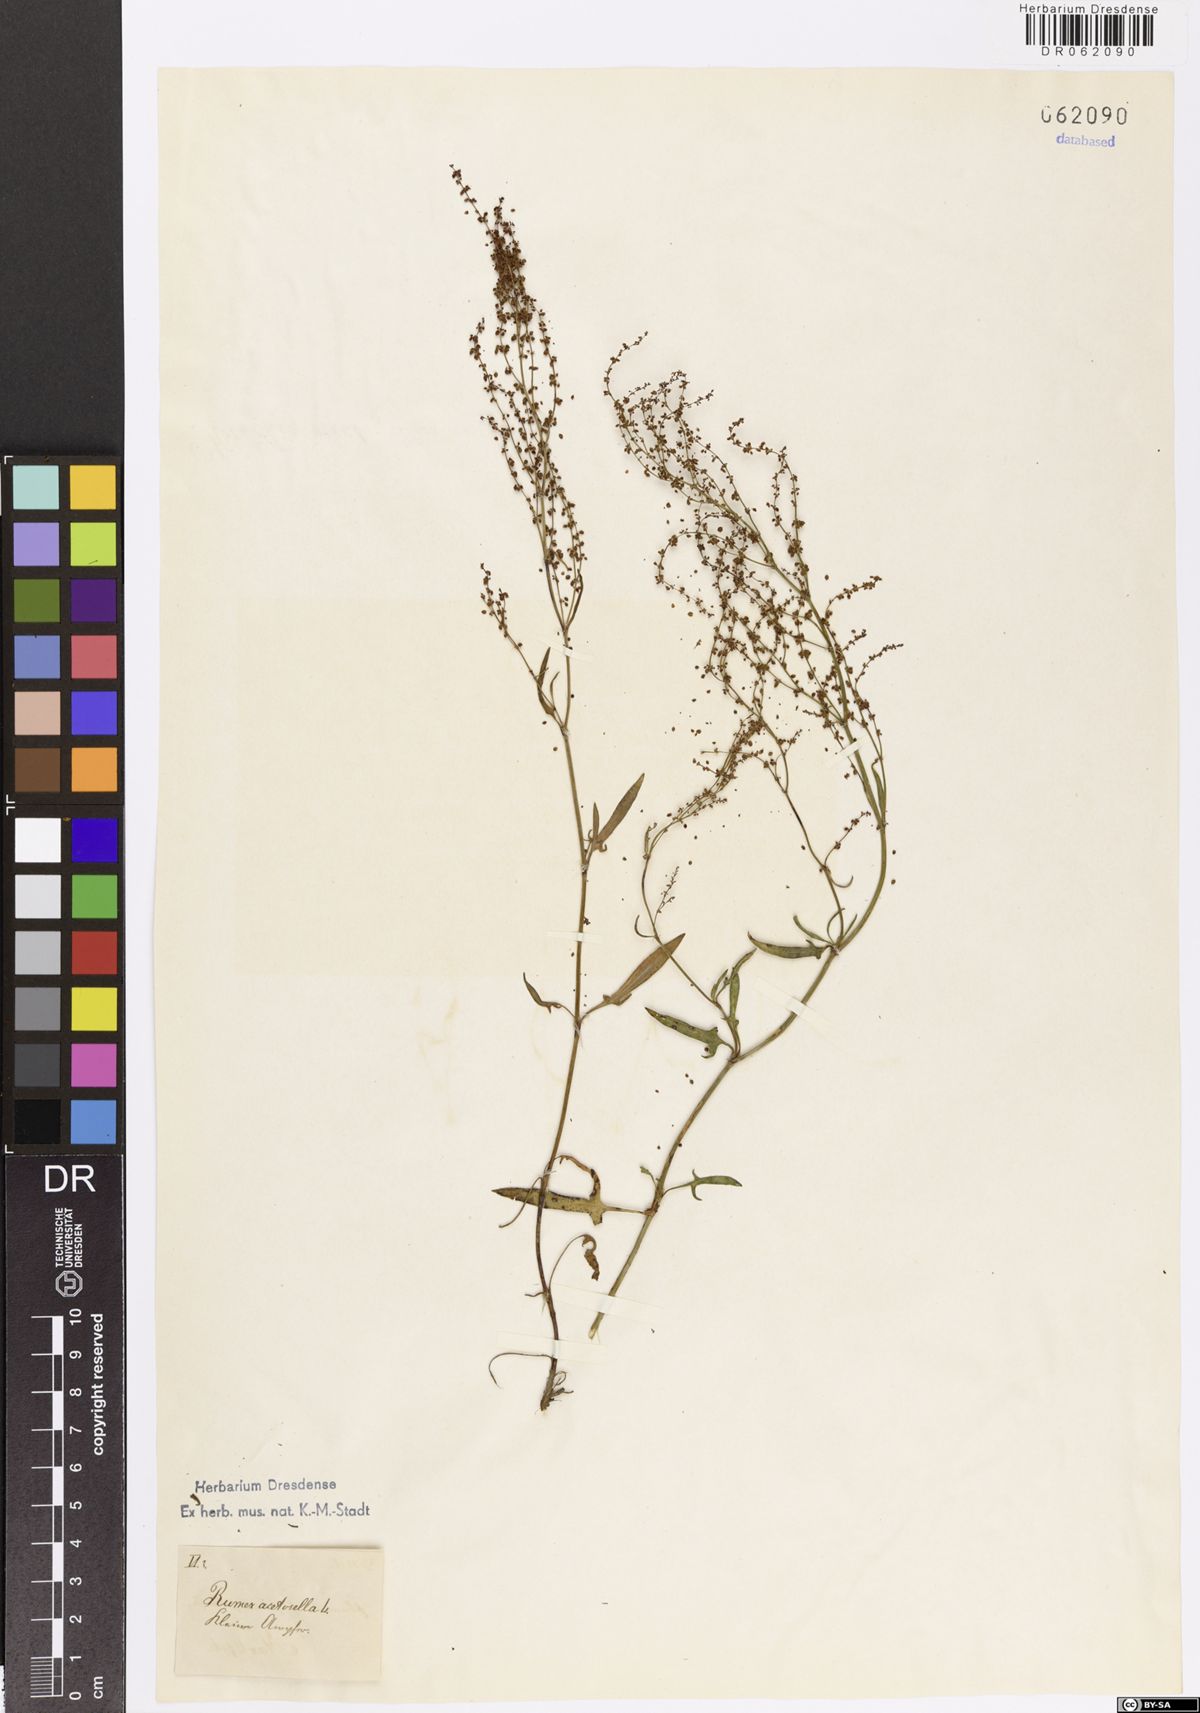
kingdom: Plantae
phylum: Tracheophyta
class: Magnoliopsida
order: Caryophyllales
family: Polygonaceae
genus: Rumex
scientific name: Rumex acetosella
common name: Common sheep sorrel
